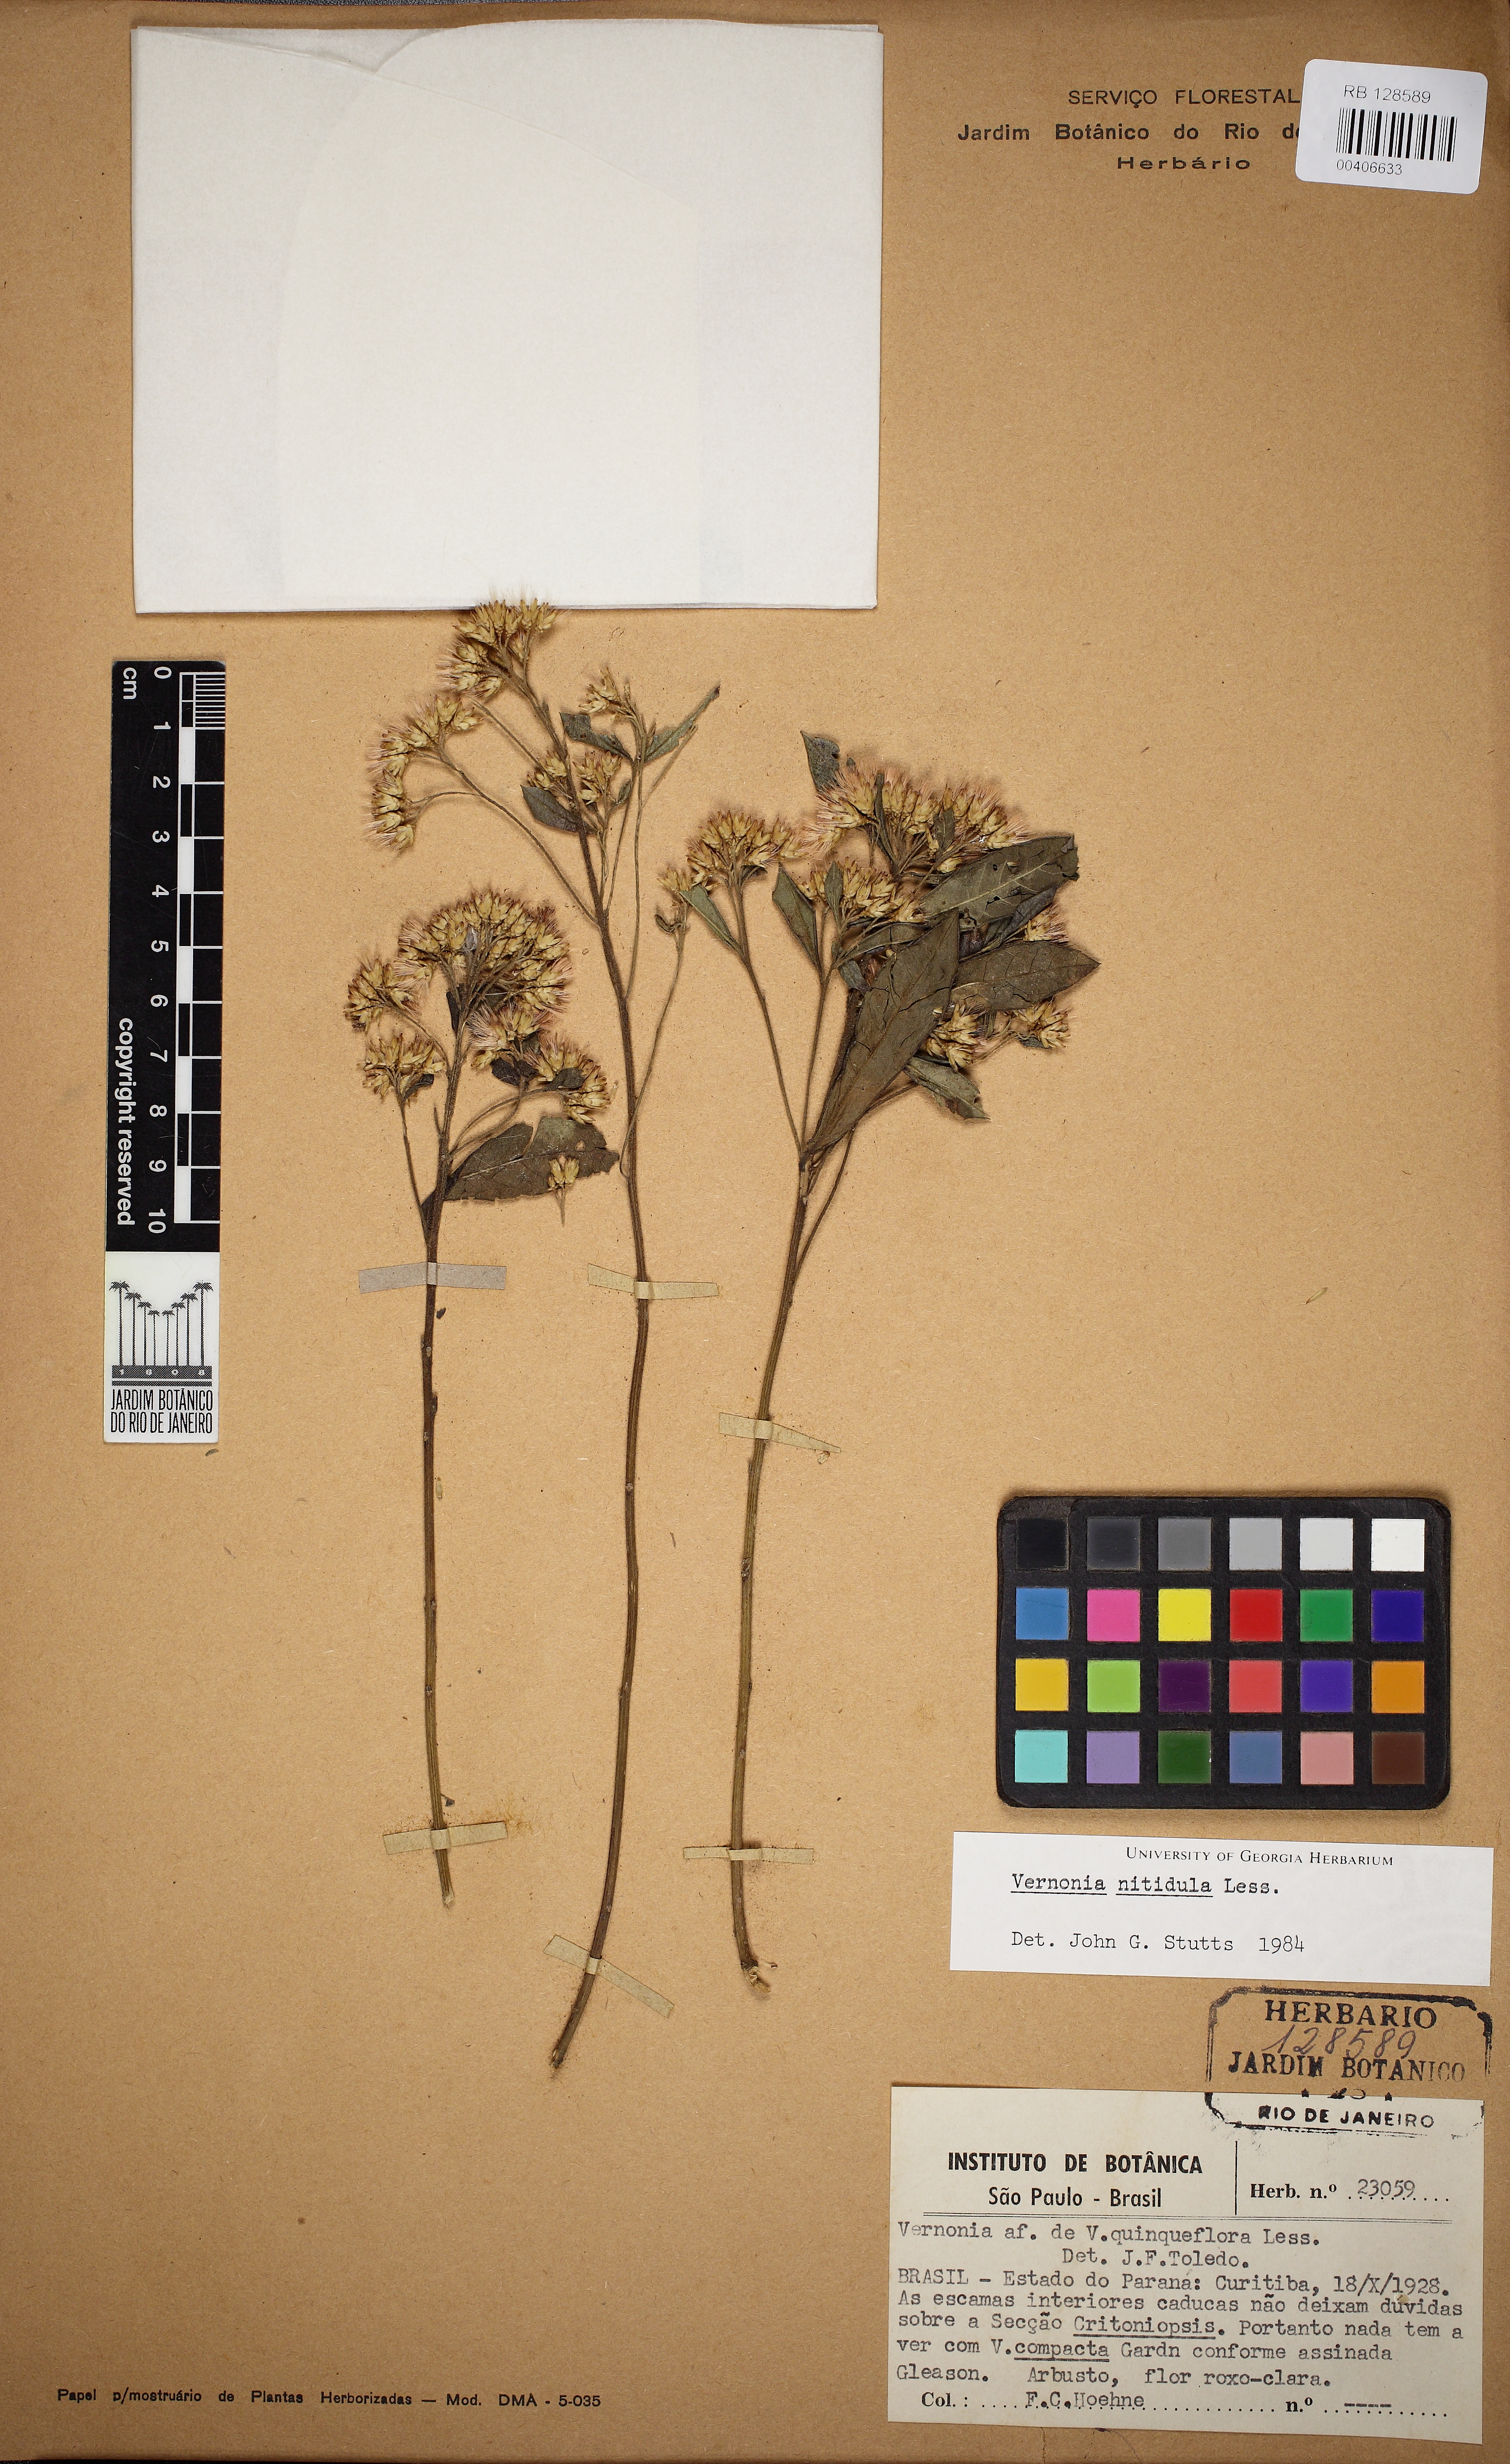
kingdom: Plantae
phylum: Tracheophyta
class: Magnoliopsida
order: Asterales
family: Asteraceae
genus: Vernonanthura
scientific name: Vernonanthura montevidensis
